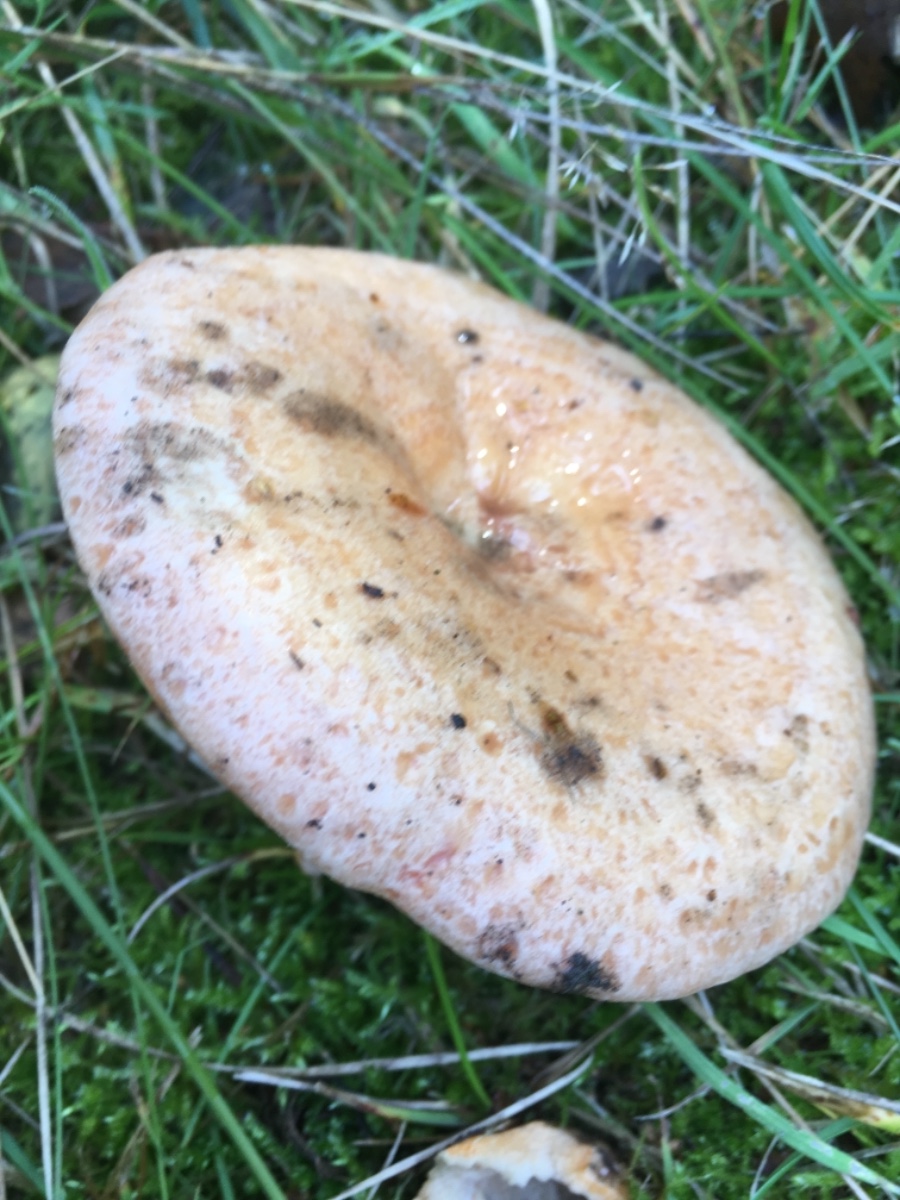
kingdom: Fungi
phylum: Basidiomycota
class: Agaricomycetes
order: Russulales
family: Russulaceae
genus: Lactarius
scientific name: Lactarius deliciosus
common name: velsmagende mælkehat
